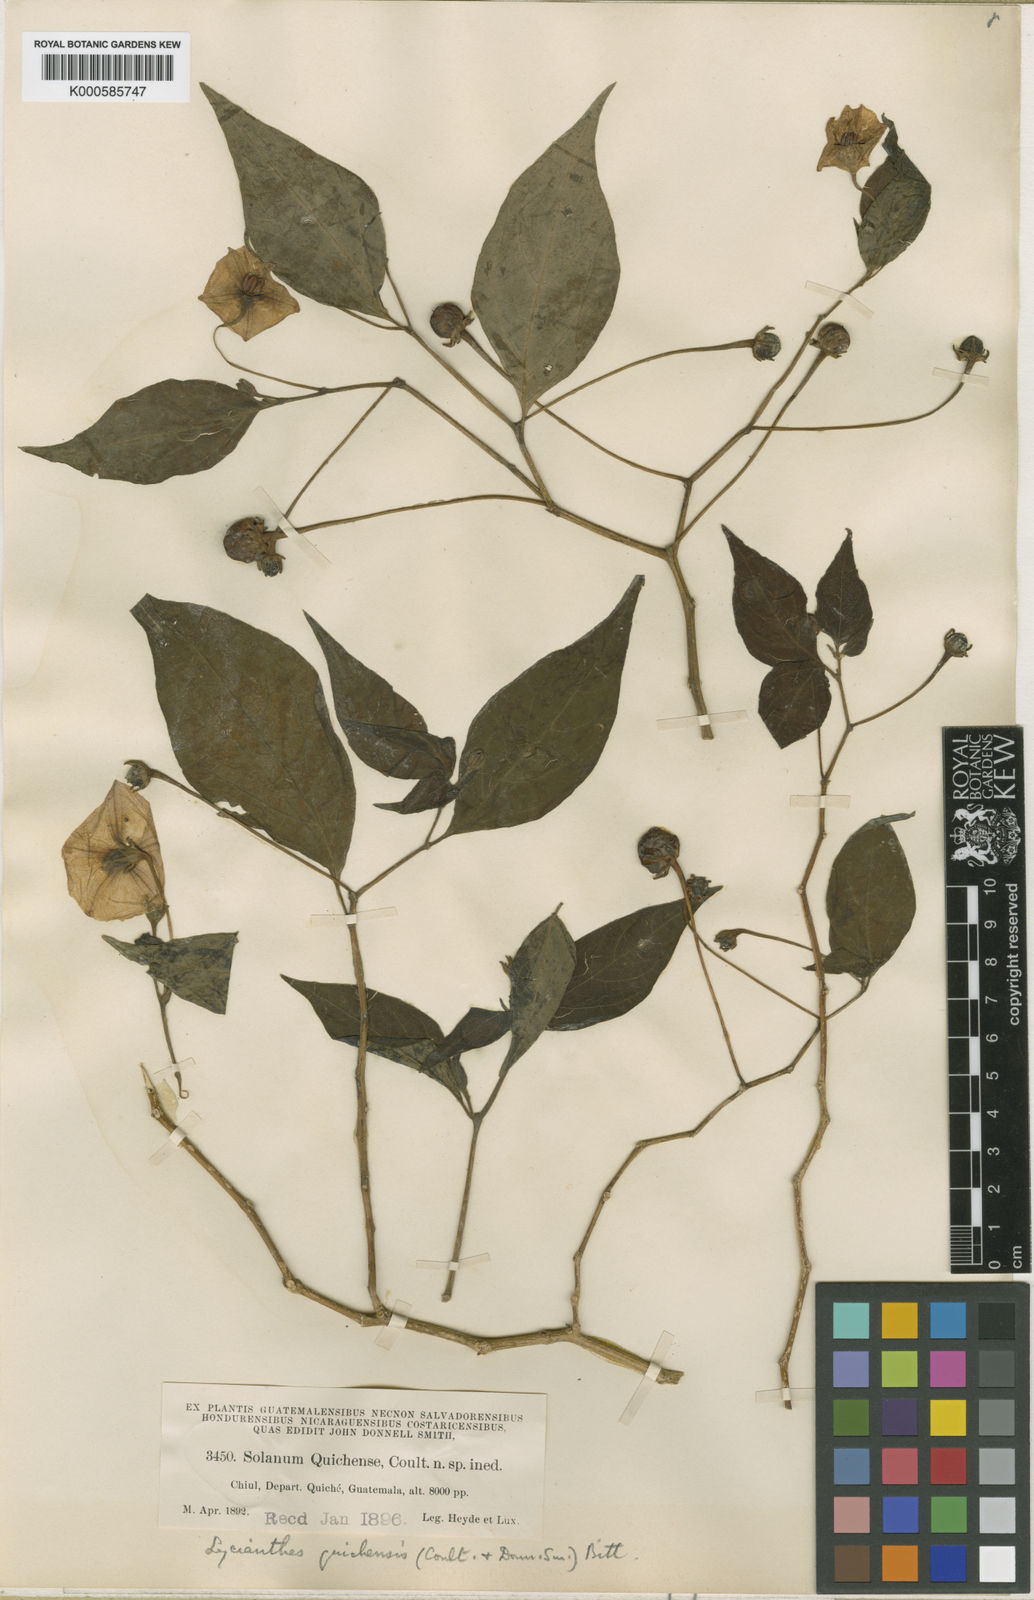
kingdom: Plantae
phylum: Tracheophyta
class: Magnoliopsida
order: Solanales
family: Solanaceae
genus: Lycianthes
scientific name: Lycianthes quichensis
